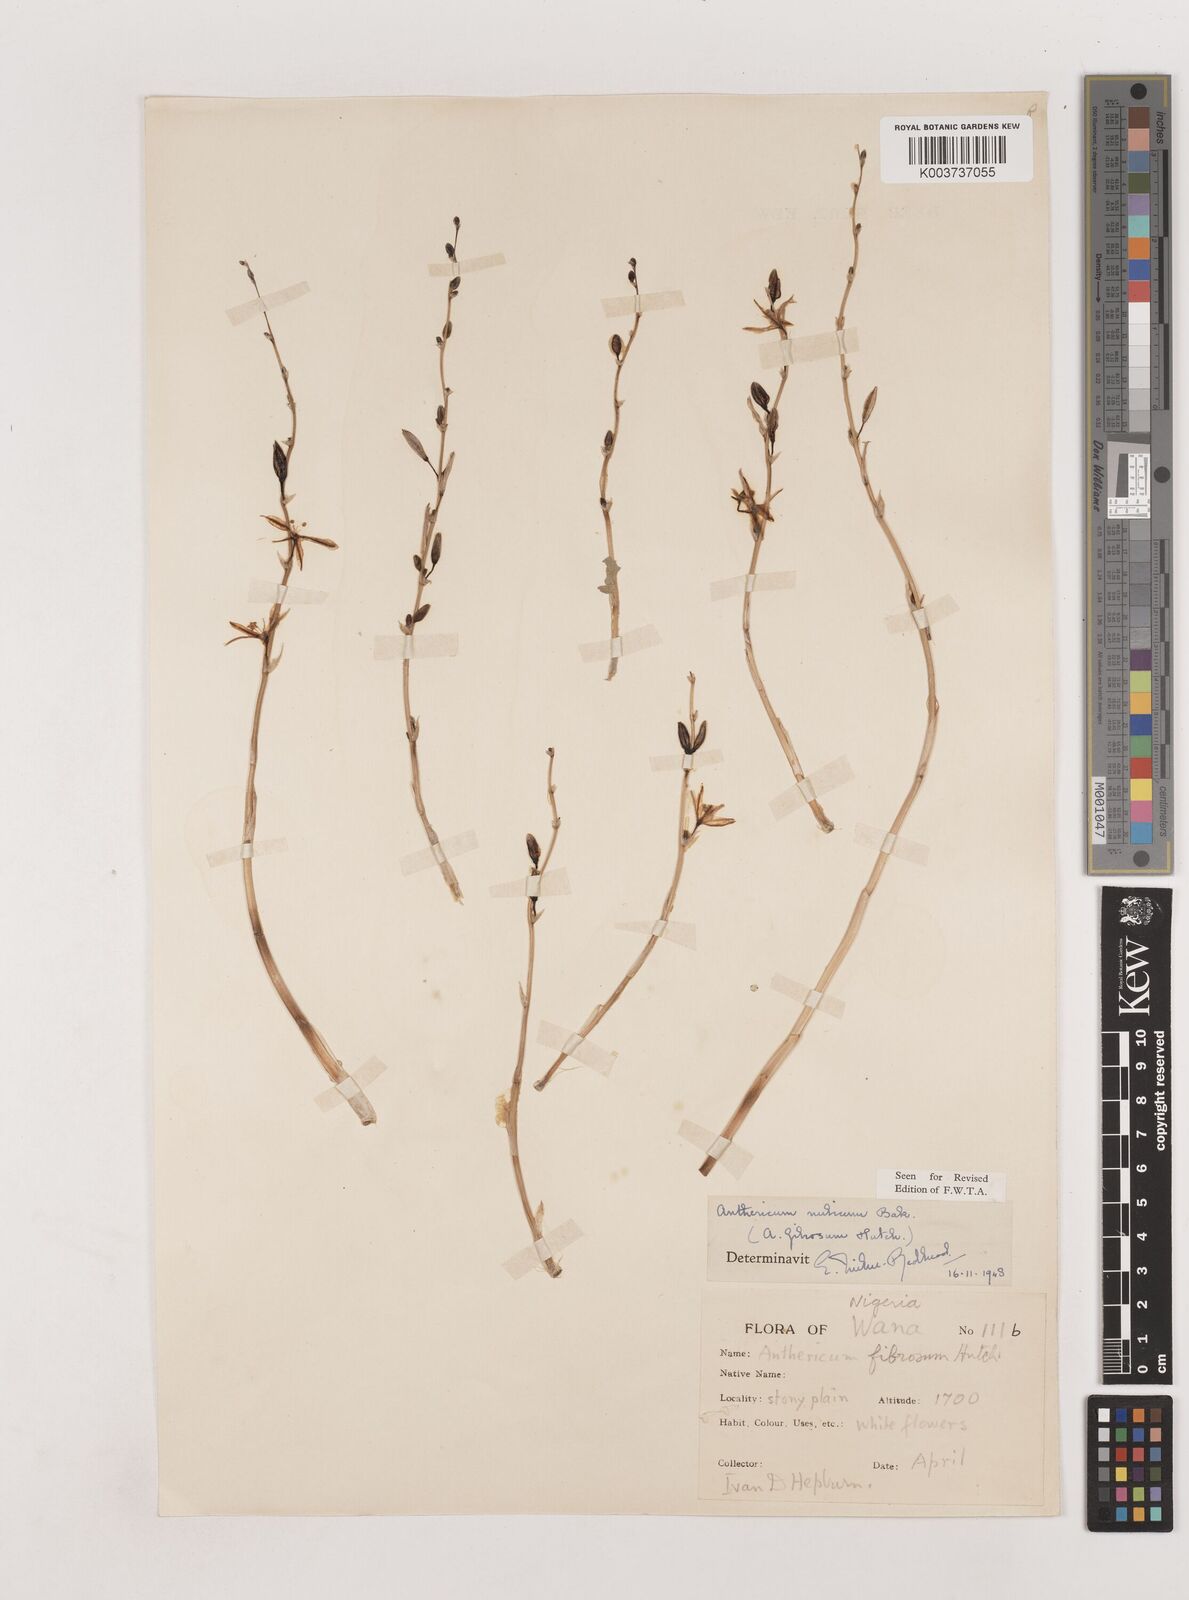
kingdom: Plantae
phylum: Tracheophyta
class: Liliopsida
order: Asparagales
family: Asparagaceae
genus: Chlorophytum
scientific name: Chlorophytum nubicum
